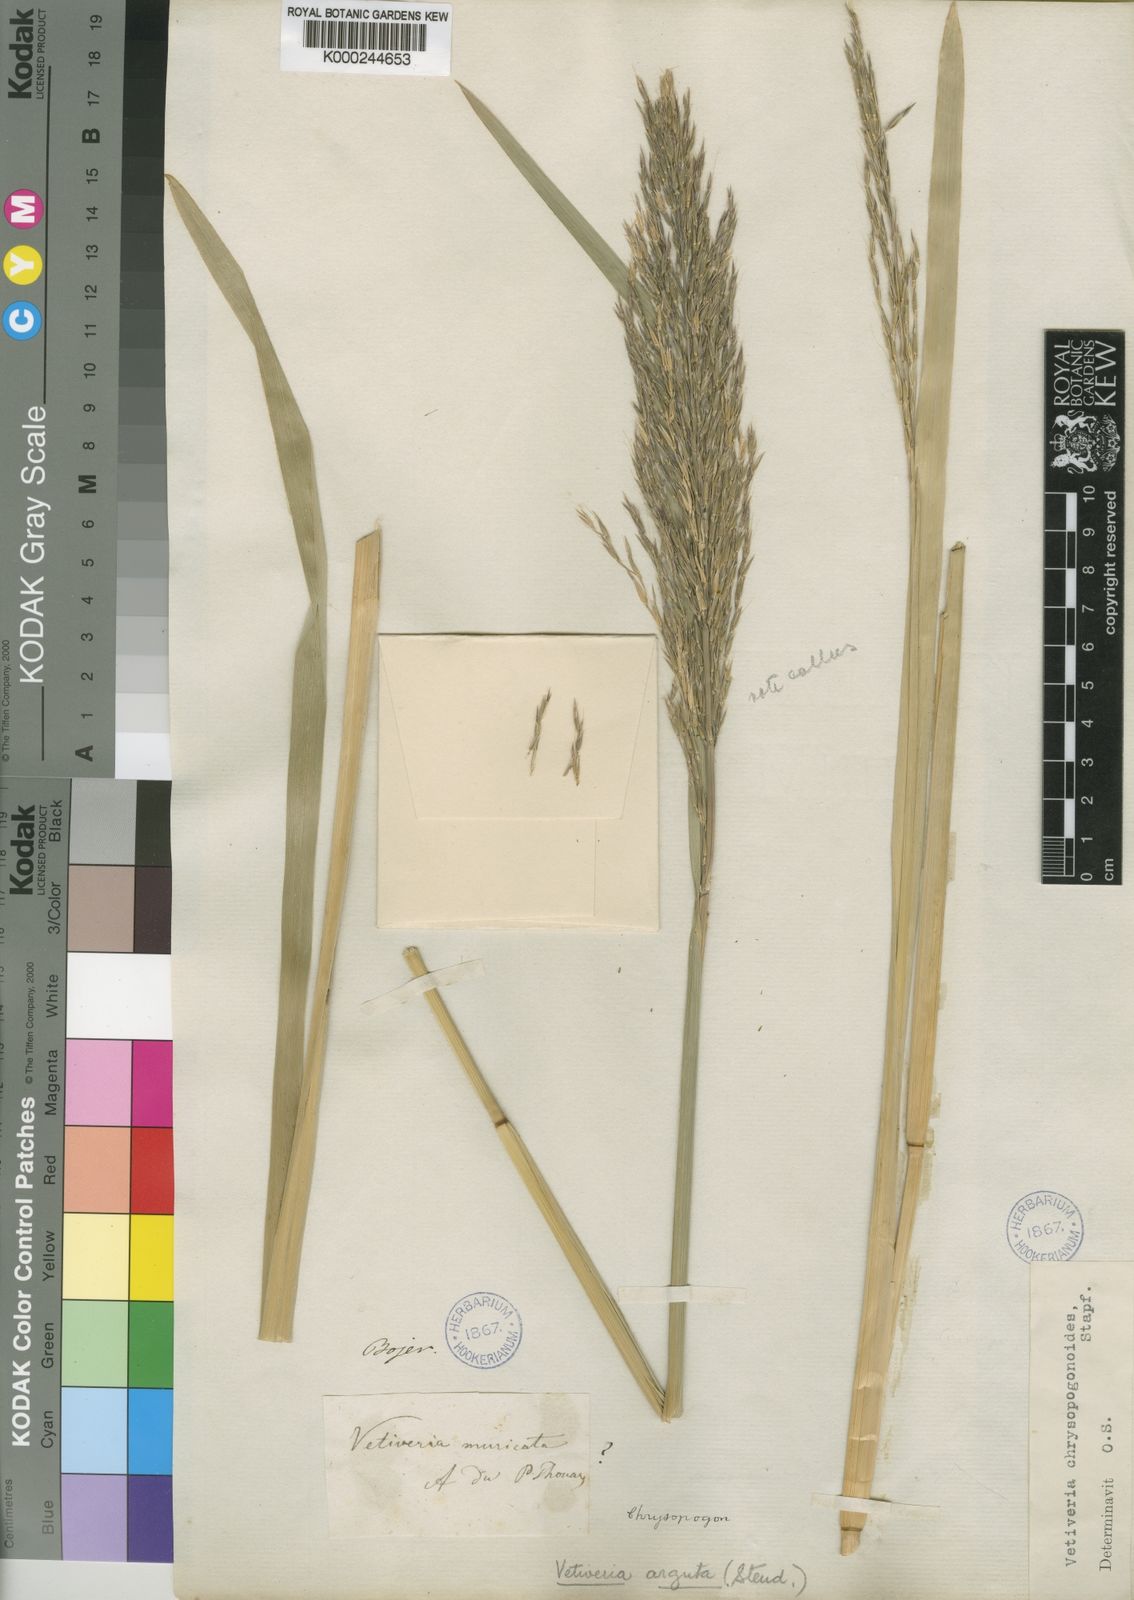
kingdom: Plantae
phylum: Tracheophyta
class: Liliopsida
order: Poales
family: Poaceae
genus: Chrysopogon
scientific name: Chrysopogon argutus
